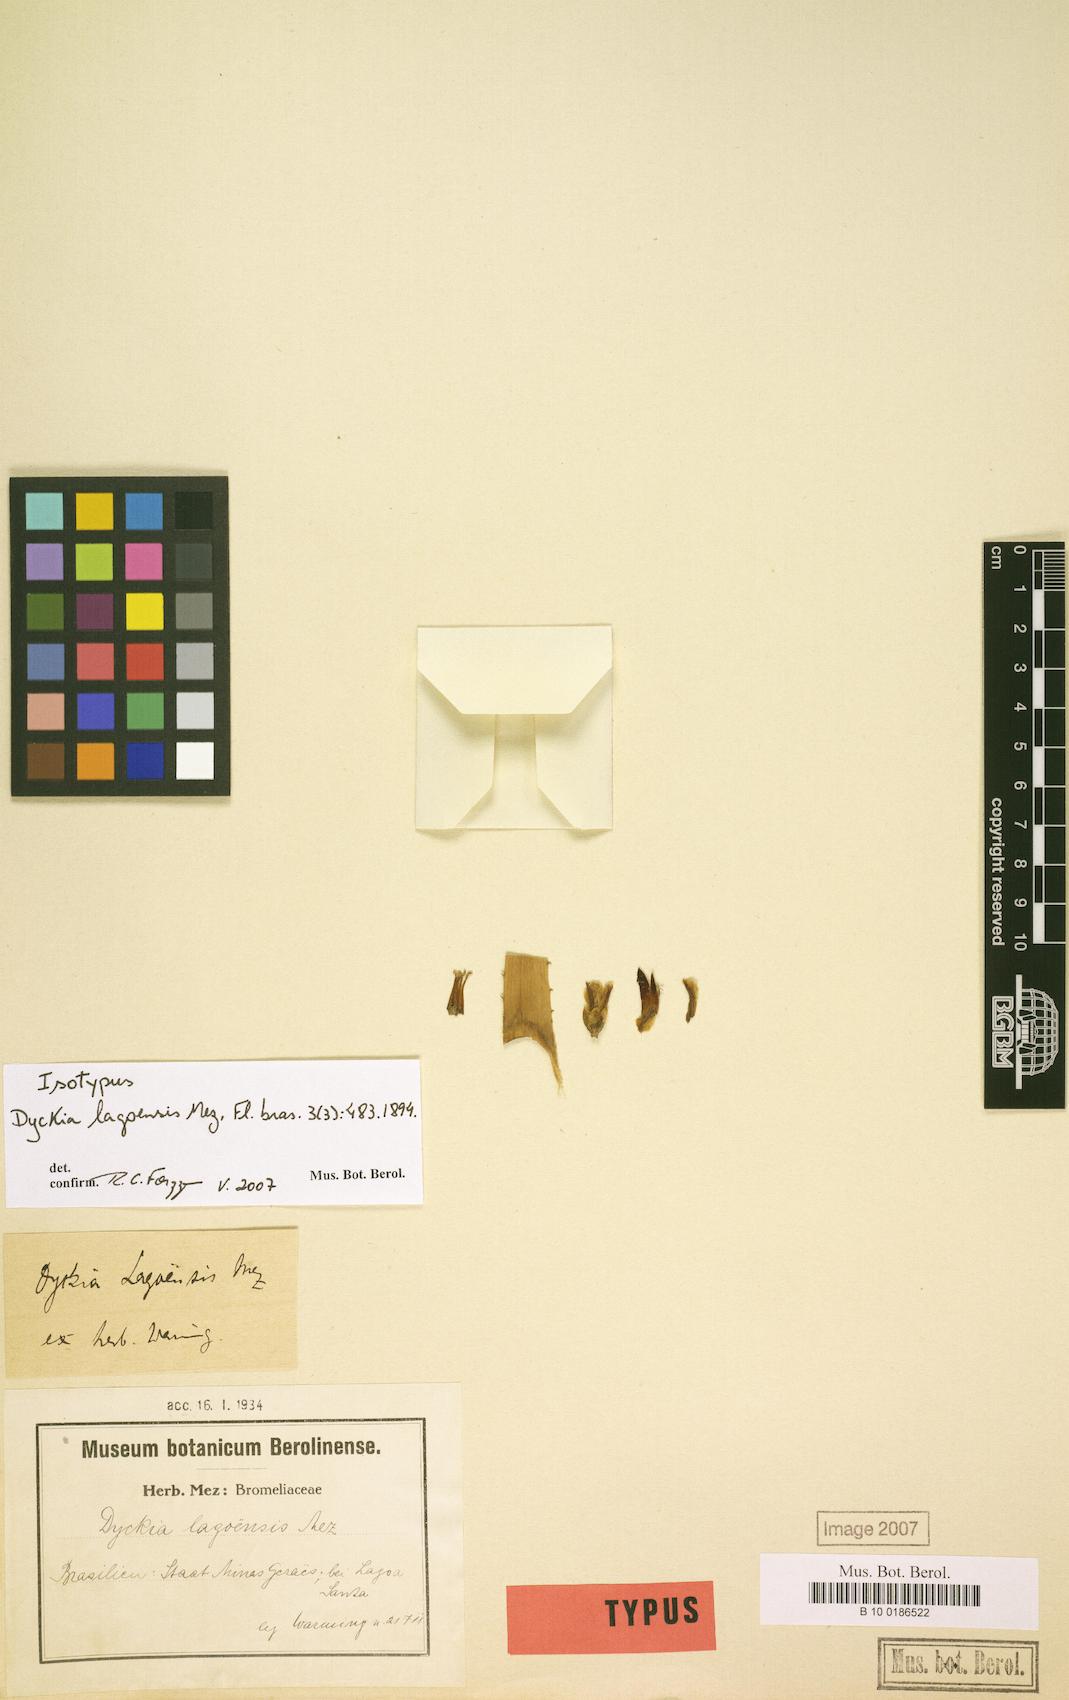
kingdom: Plantae
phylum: Tracheophyta
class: Liliopsida
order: Poales
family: Bromeliaceae
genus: Dyckia
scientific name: Dyckia lagoensis
